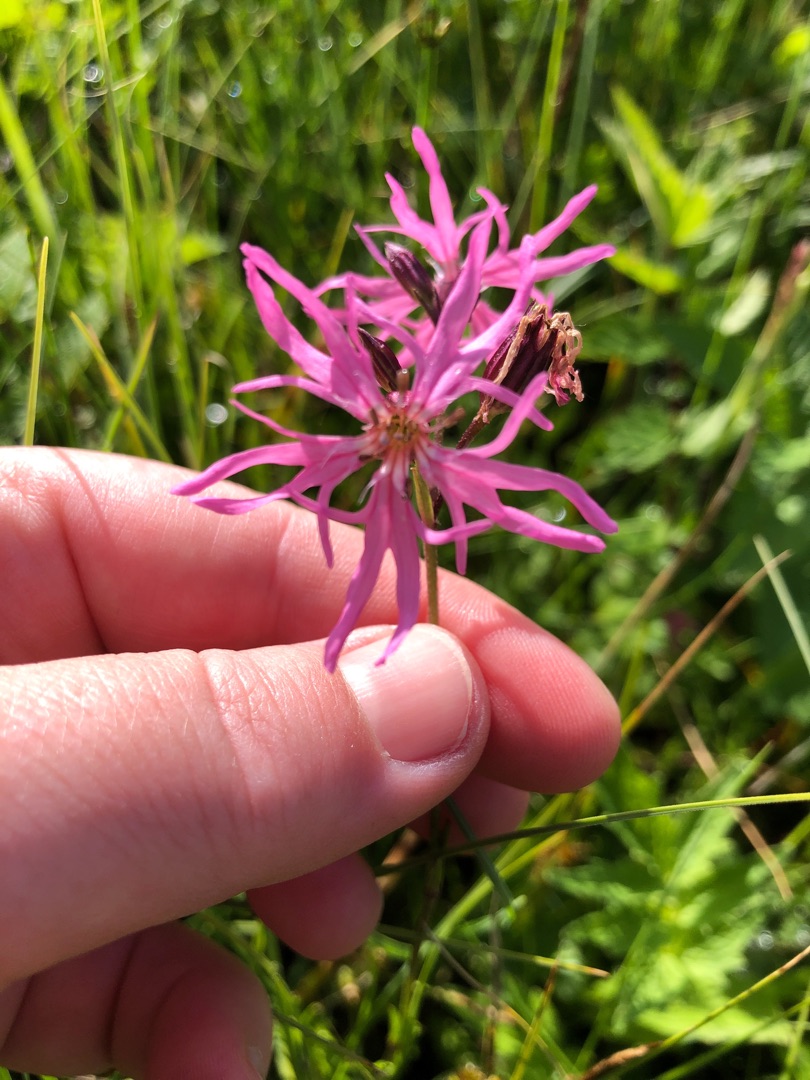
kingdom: Plantae
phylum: Tracheophyta
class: Magnoliopsida
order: Caryophyllales
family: Caryophyllaceae
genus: Silene
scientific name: Silene flos-cuculi
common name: Trævlekrone
